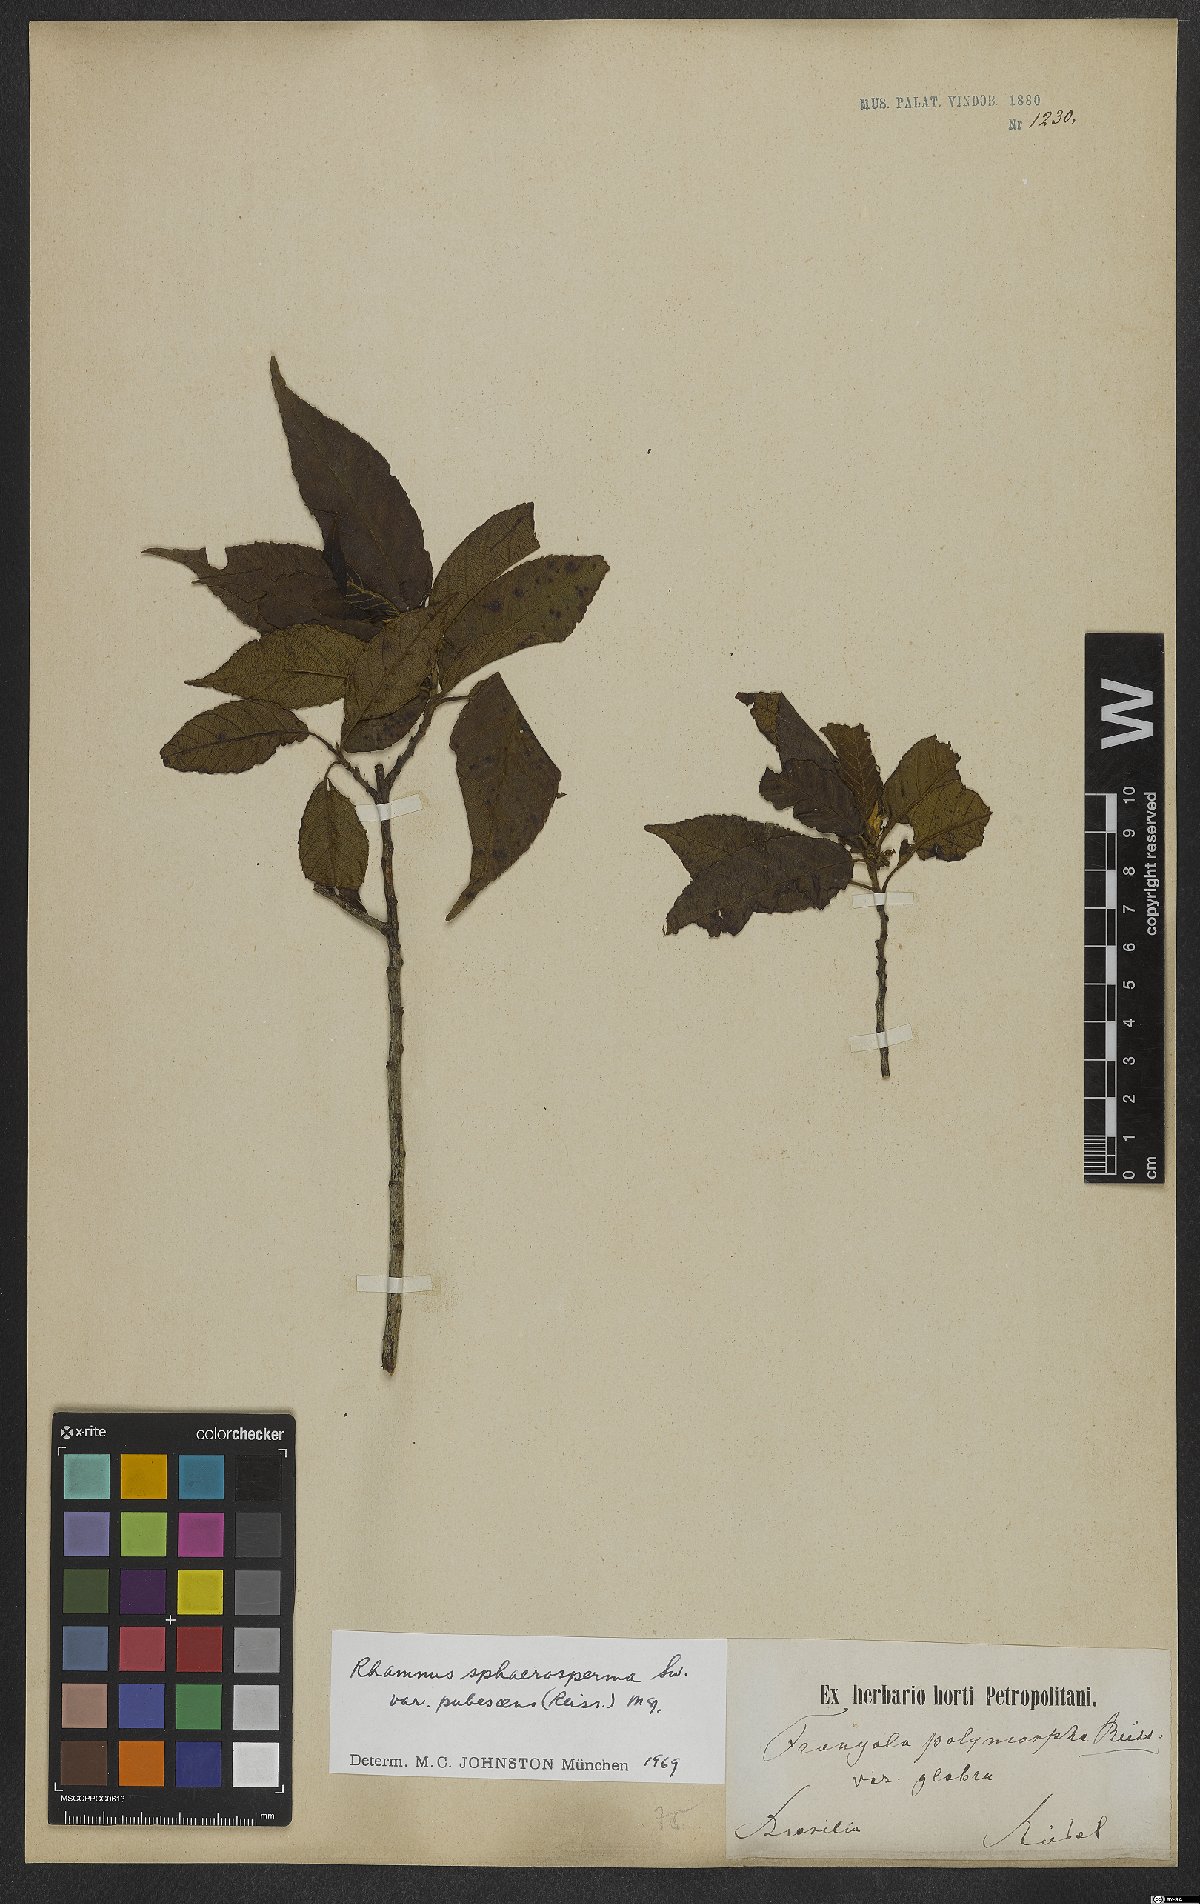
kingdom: Plantae
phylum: Tracheophyta
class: Magnoliopsida
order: Rosales
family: Rhamnaceae
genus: Frangula
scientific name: Frangula sphaerosperma
